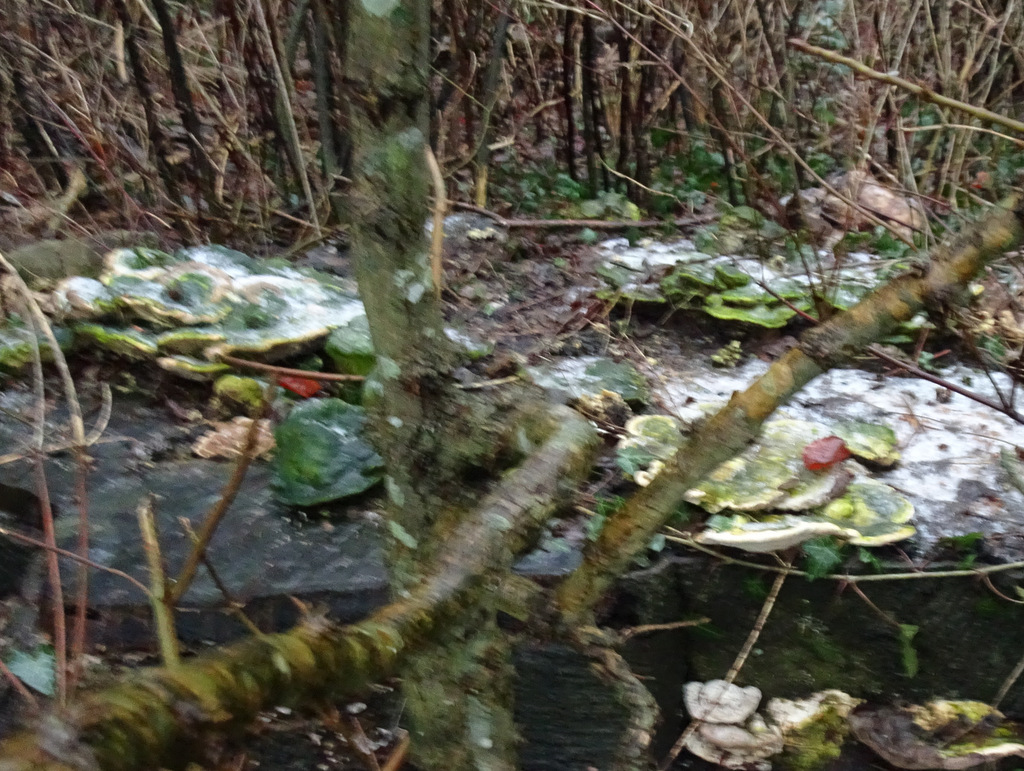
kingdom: Fungi
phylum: Basidiomycota
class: Agaricomycetes
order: Polyporales
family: Polyporaceae
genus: Trametes
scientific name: Trametes gibbosa
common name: puklet læderporesvamp
